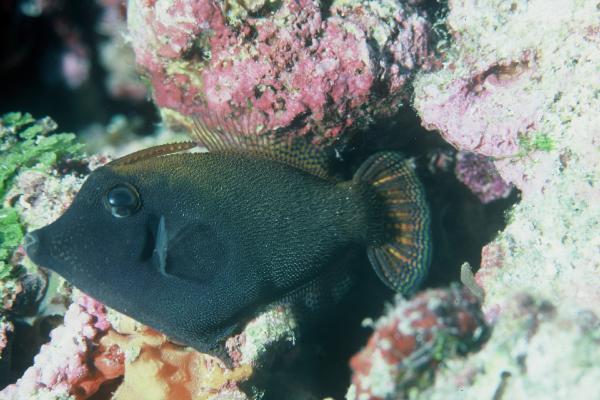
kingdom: Animalia
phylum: Chordata
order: Tetraodontiformes
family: Monacanthidae
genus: Pervagor
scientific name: Pervagor janthinosoma
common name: Blackbar filefish
